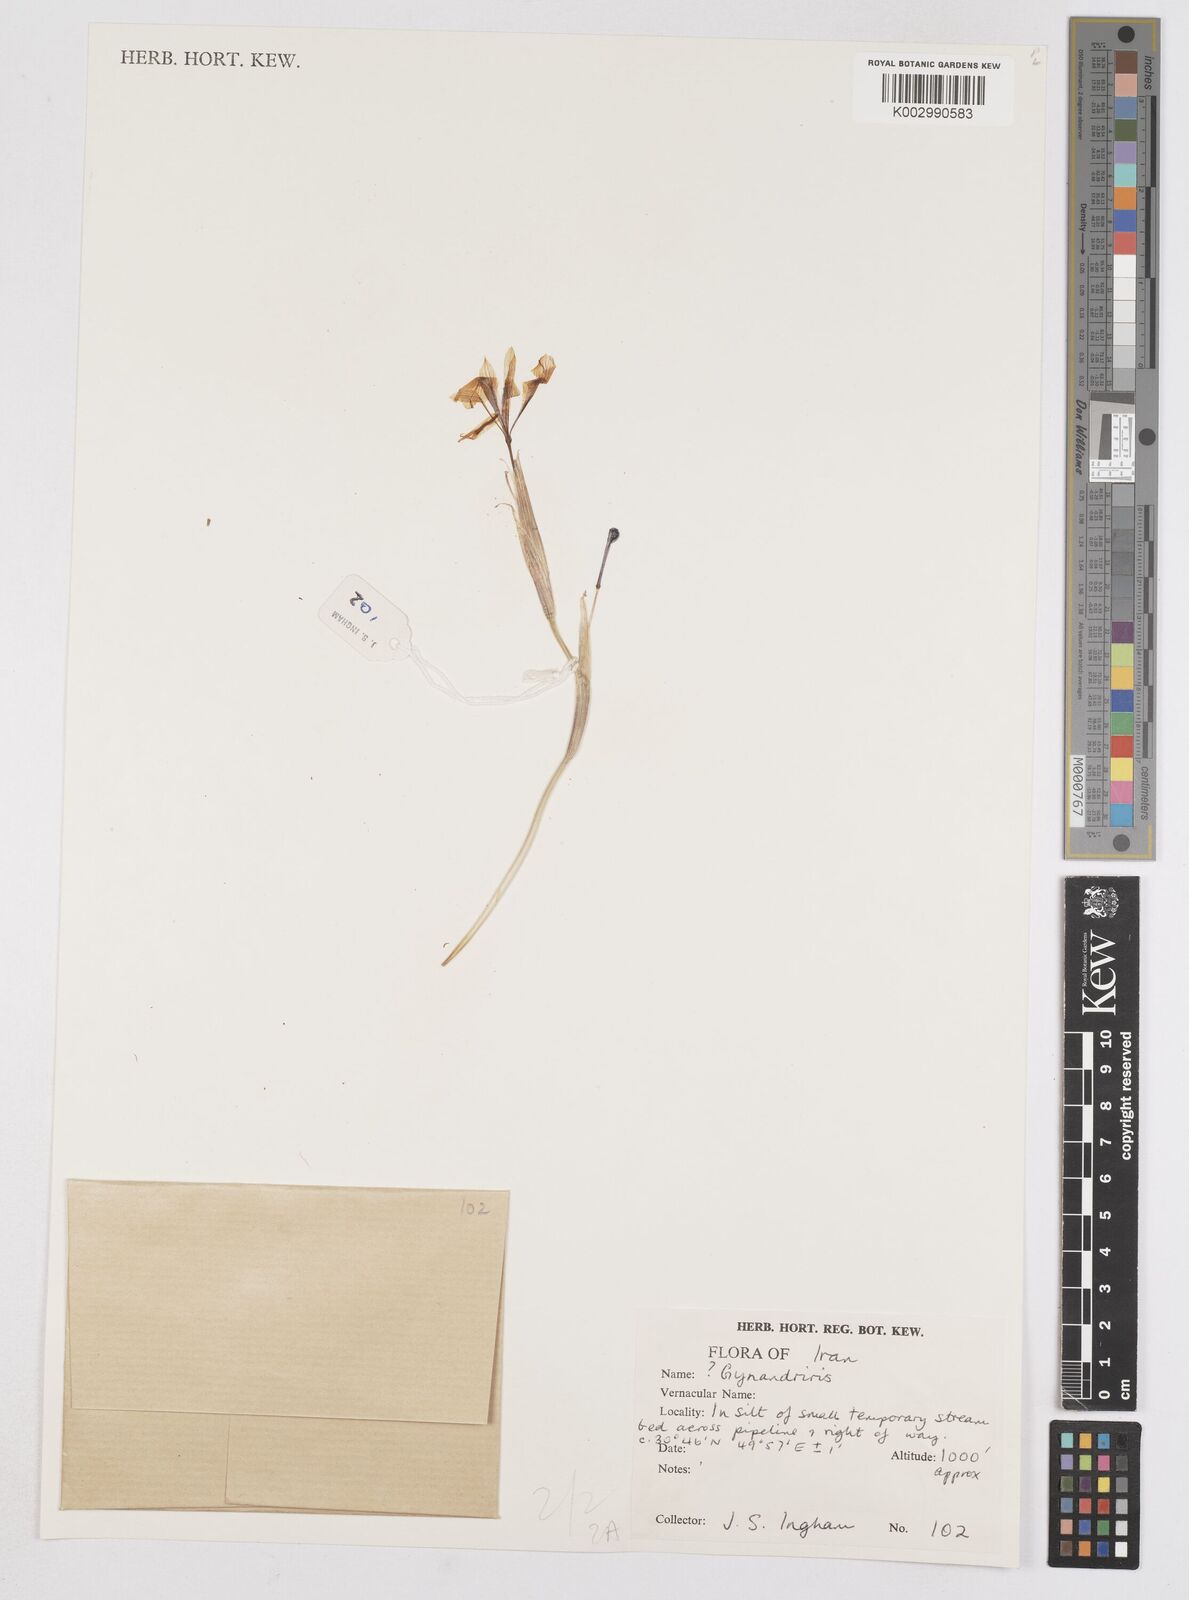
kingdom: Plantae
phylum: Tracheophyta
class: Liliopsida
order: Asparagales
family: Iridaceae
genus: Moraea
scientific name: Moraea sisyrinchium
